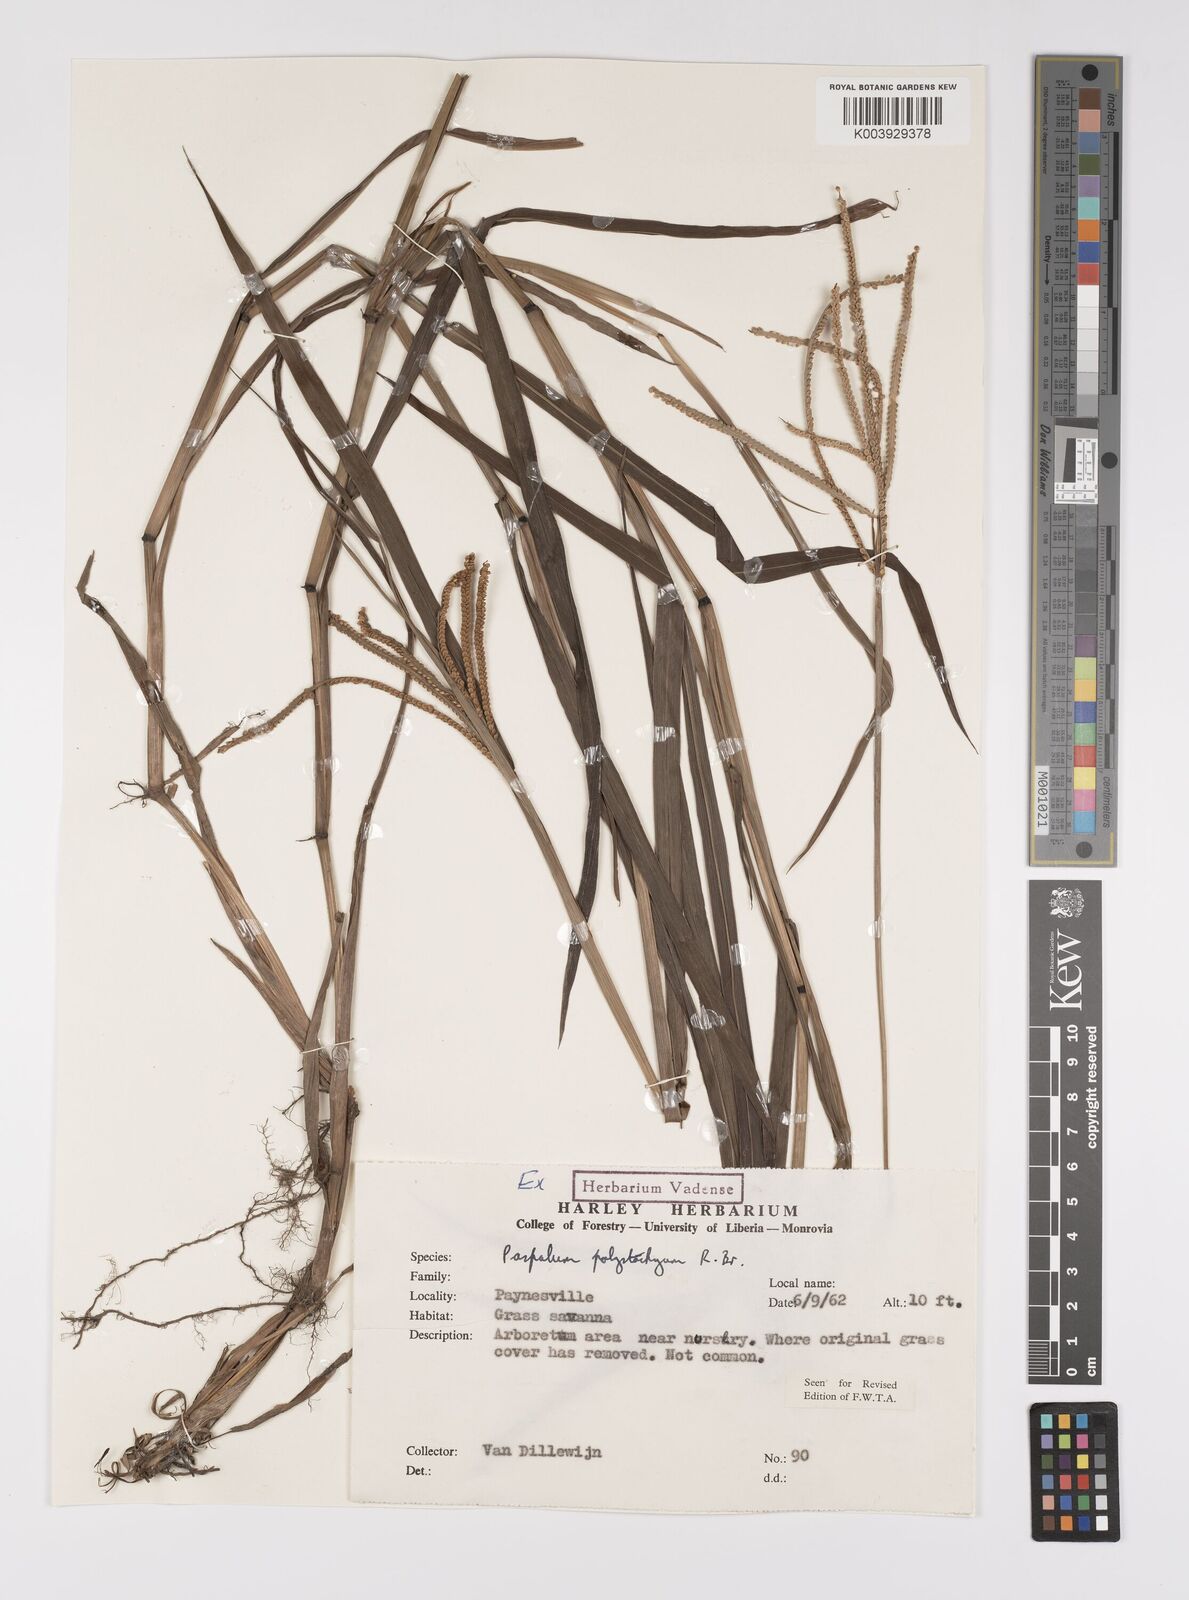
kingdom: Plantae
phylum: Tracheophyta
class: Liliopsida
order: Poales
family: Poaceae
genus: Paspalum
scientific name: Paspalum scrobiculatum
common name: Kodo millet
